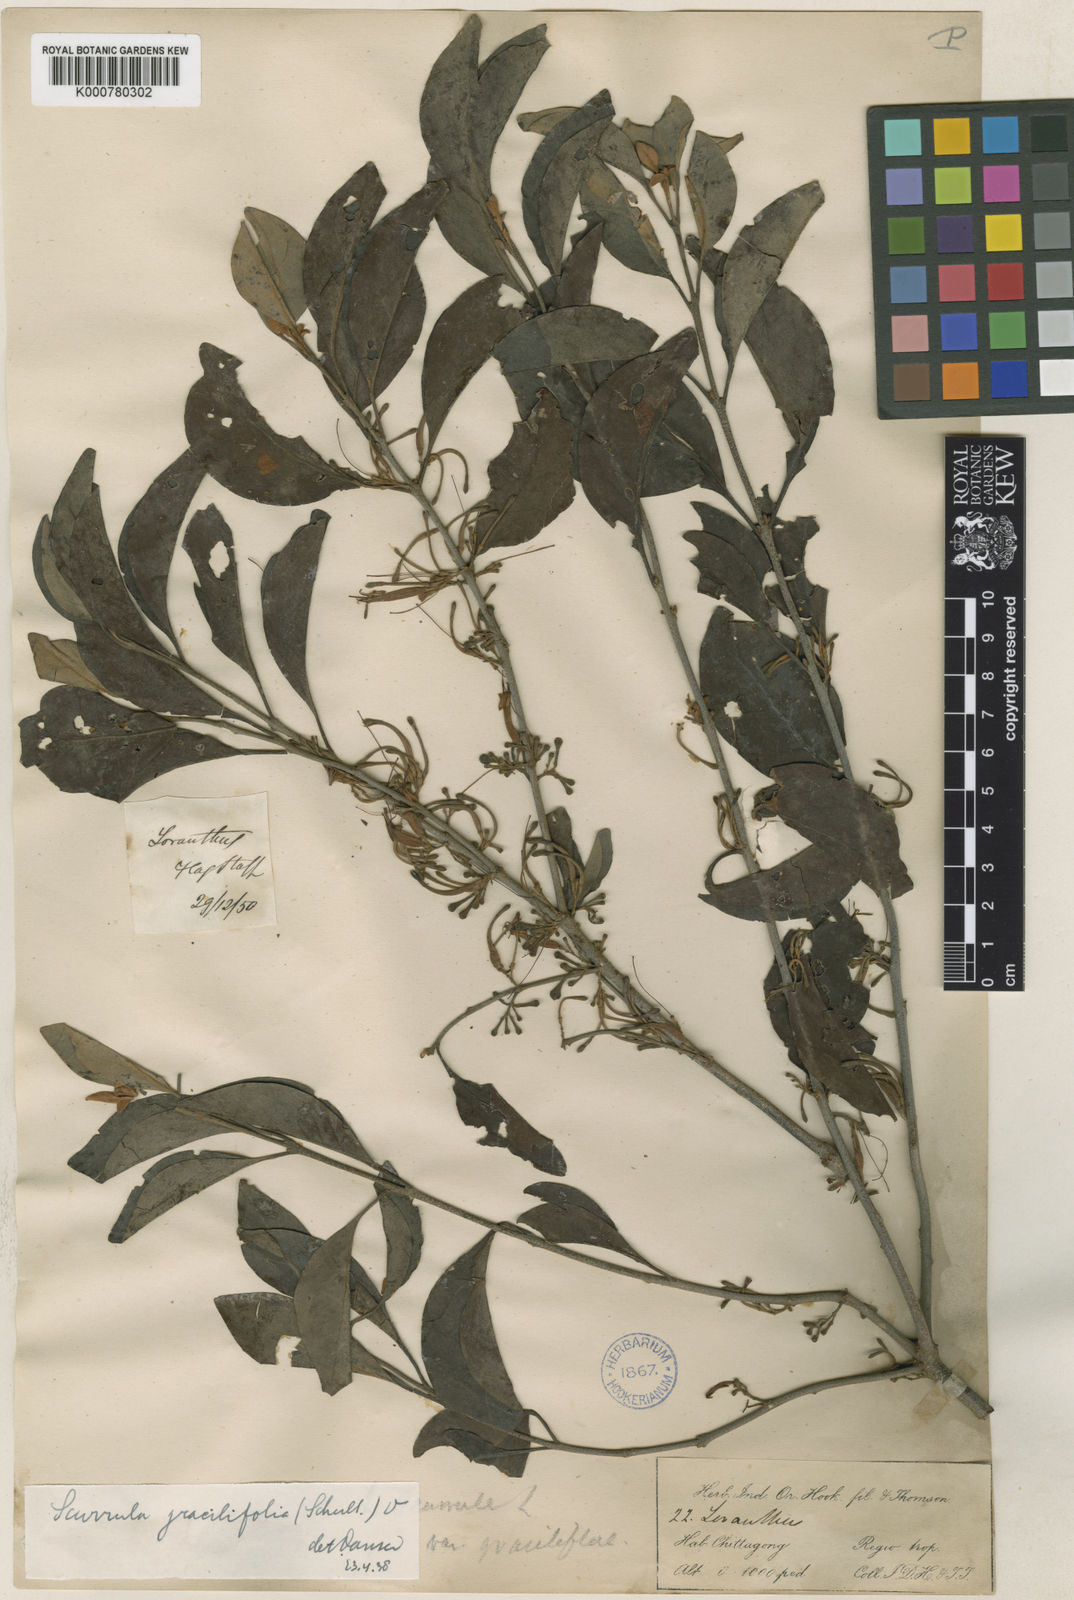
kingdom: Plantae
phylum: Tracheophyta
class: Magnoliopsida
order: Santalales
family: Loranthaceae
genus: Scurrula
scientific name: Scurrula gracilifolia
